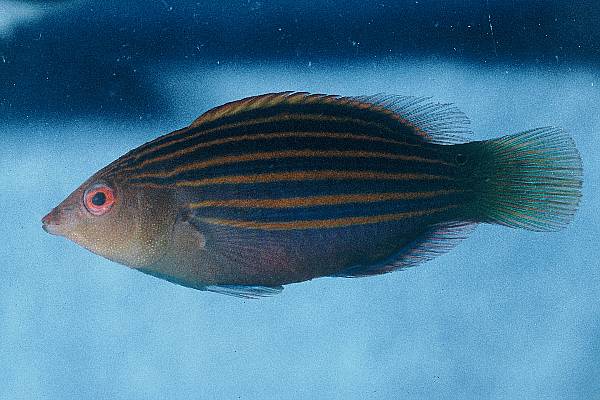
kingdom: Animalia
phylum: Chordata
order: Perciformes
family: Labridae
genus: Pseudocheilinus
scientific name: Pseudocheilinus hexataenia
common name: Sixline wrasse
